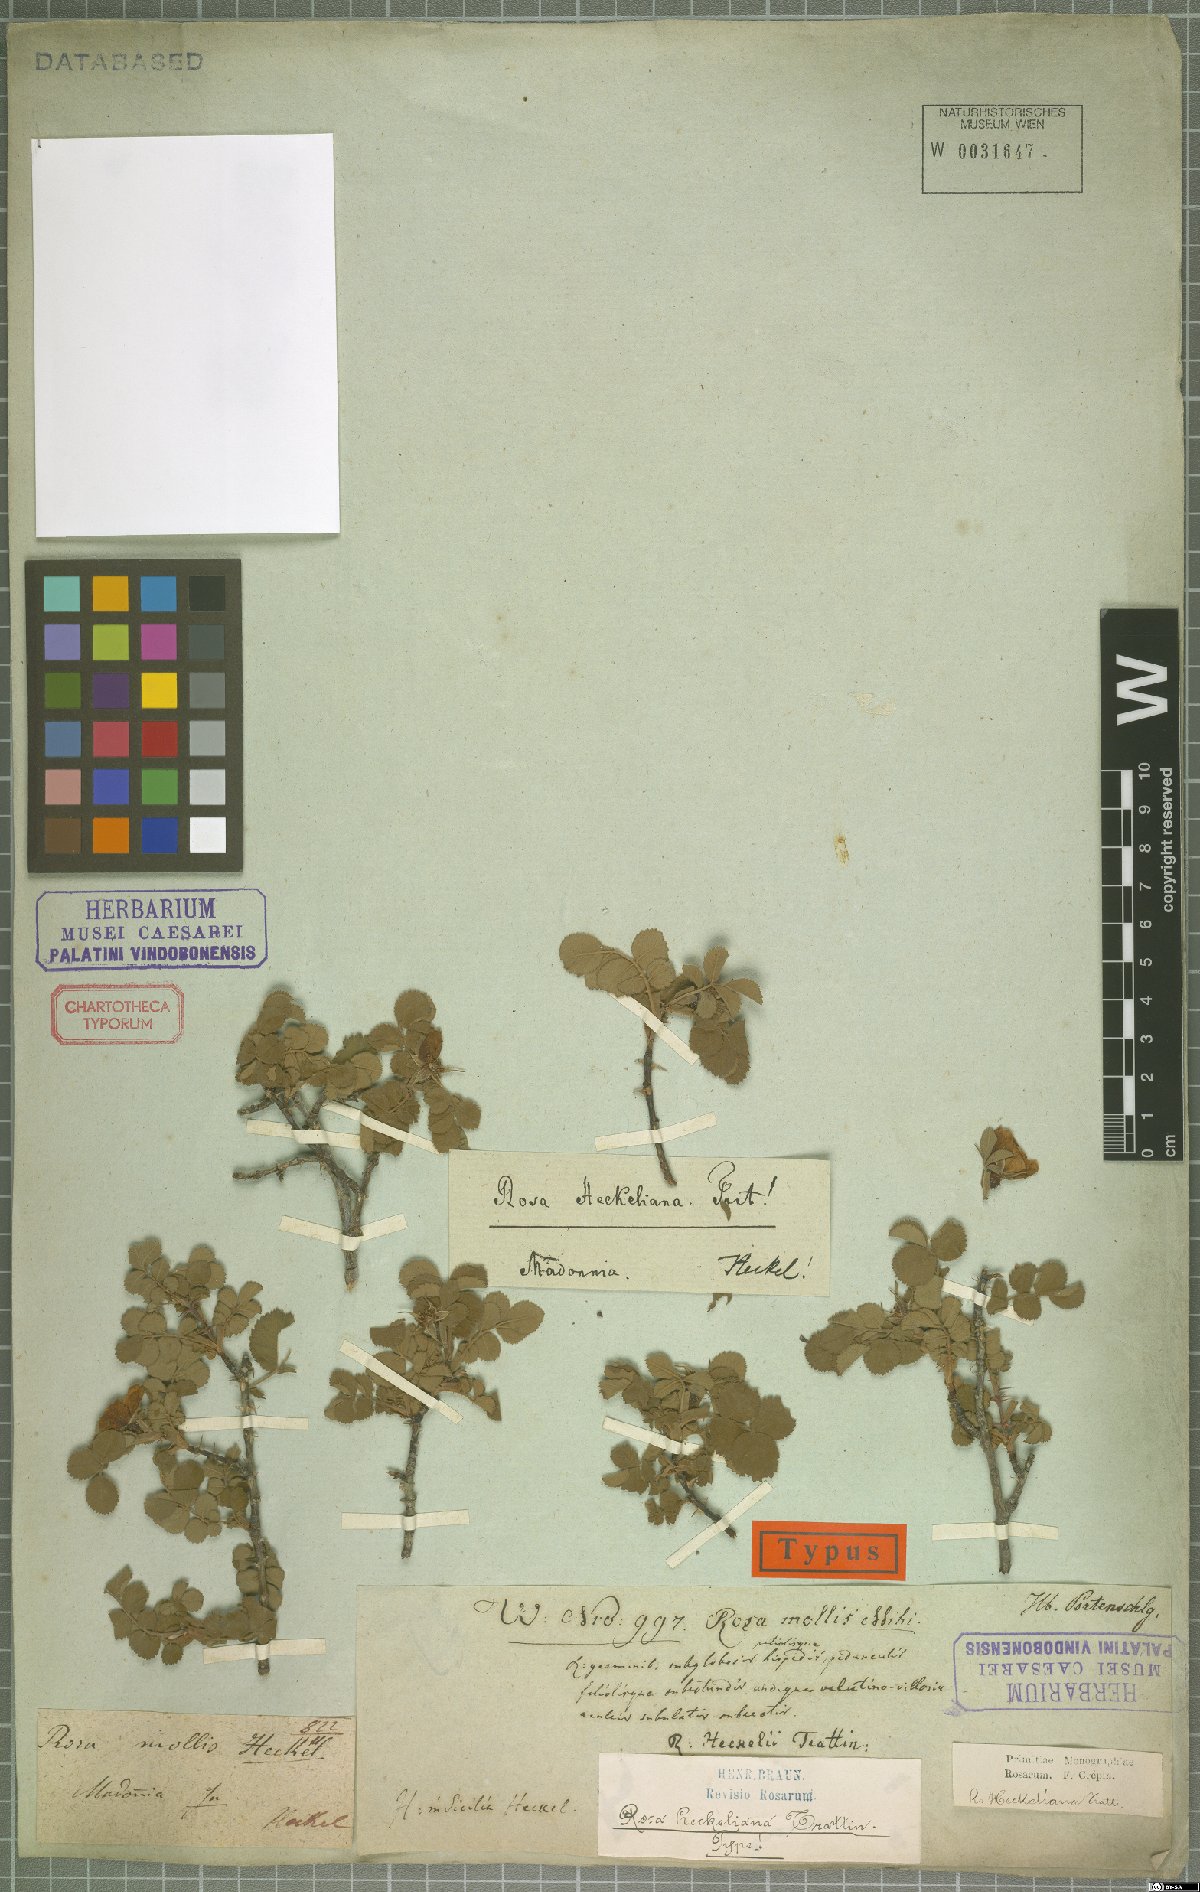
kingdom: Plantae
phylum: Tracheophyta
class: Magnoliopsida
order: Rosales
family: Rosaceae
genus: Rosa
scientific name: Rosa heckeliana
